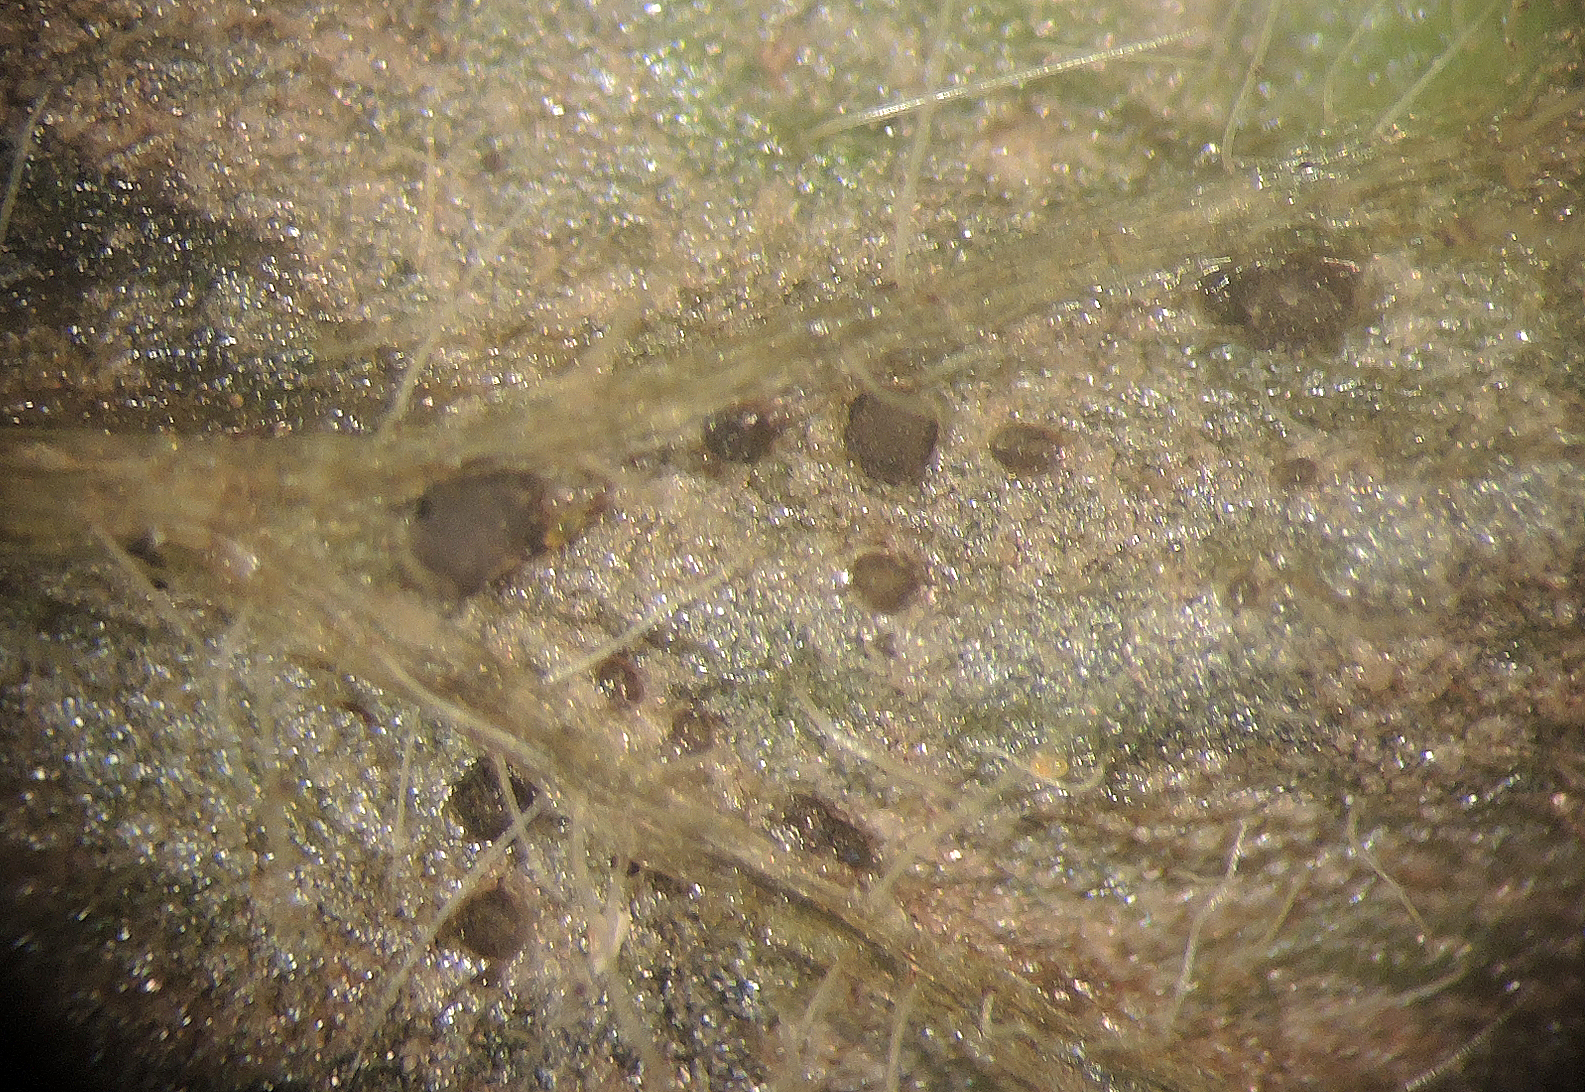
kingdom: Fungi
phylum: Ascomycota
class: Leotiomycetes
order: Helotiales
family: Drepanopezizaceae
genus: Leptotrochila
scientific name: Leptotrochila ranunculi
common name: ranunkel-bladskive
